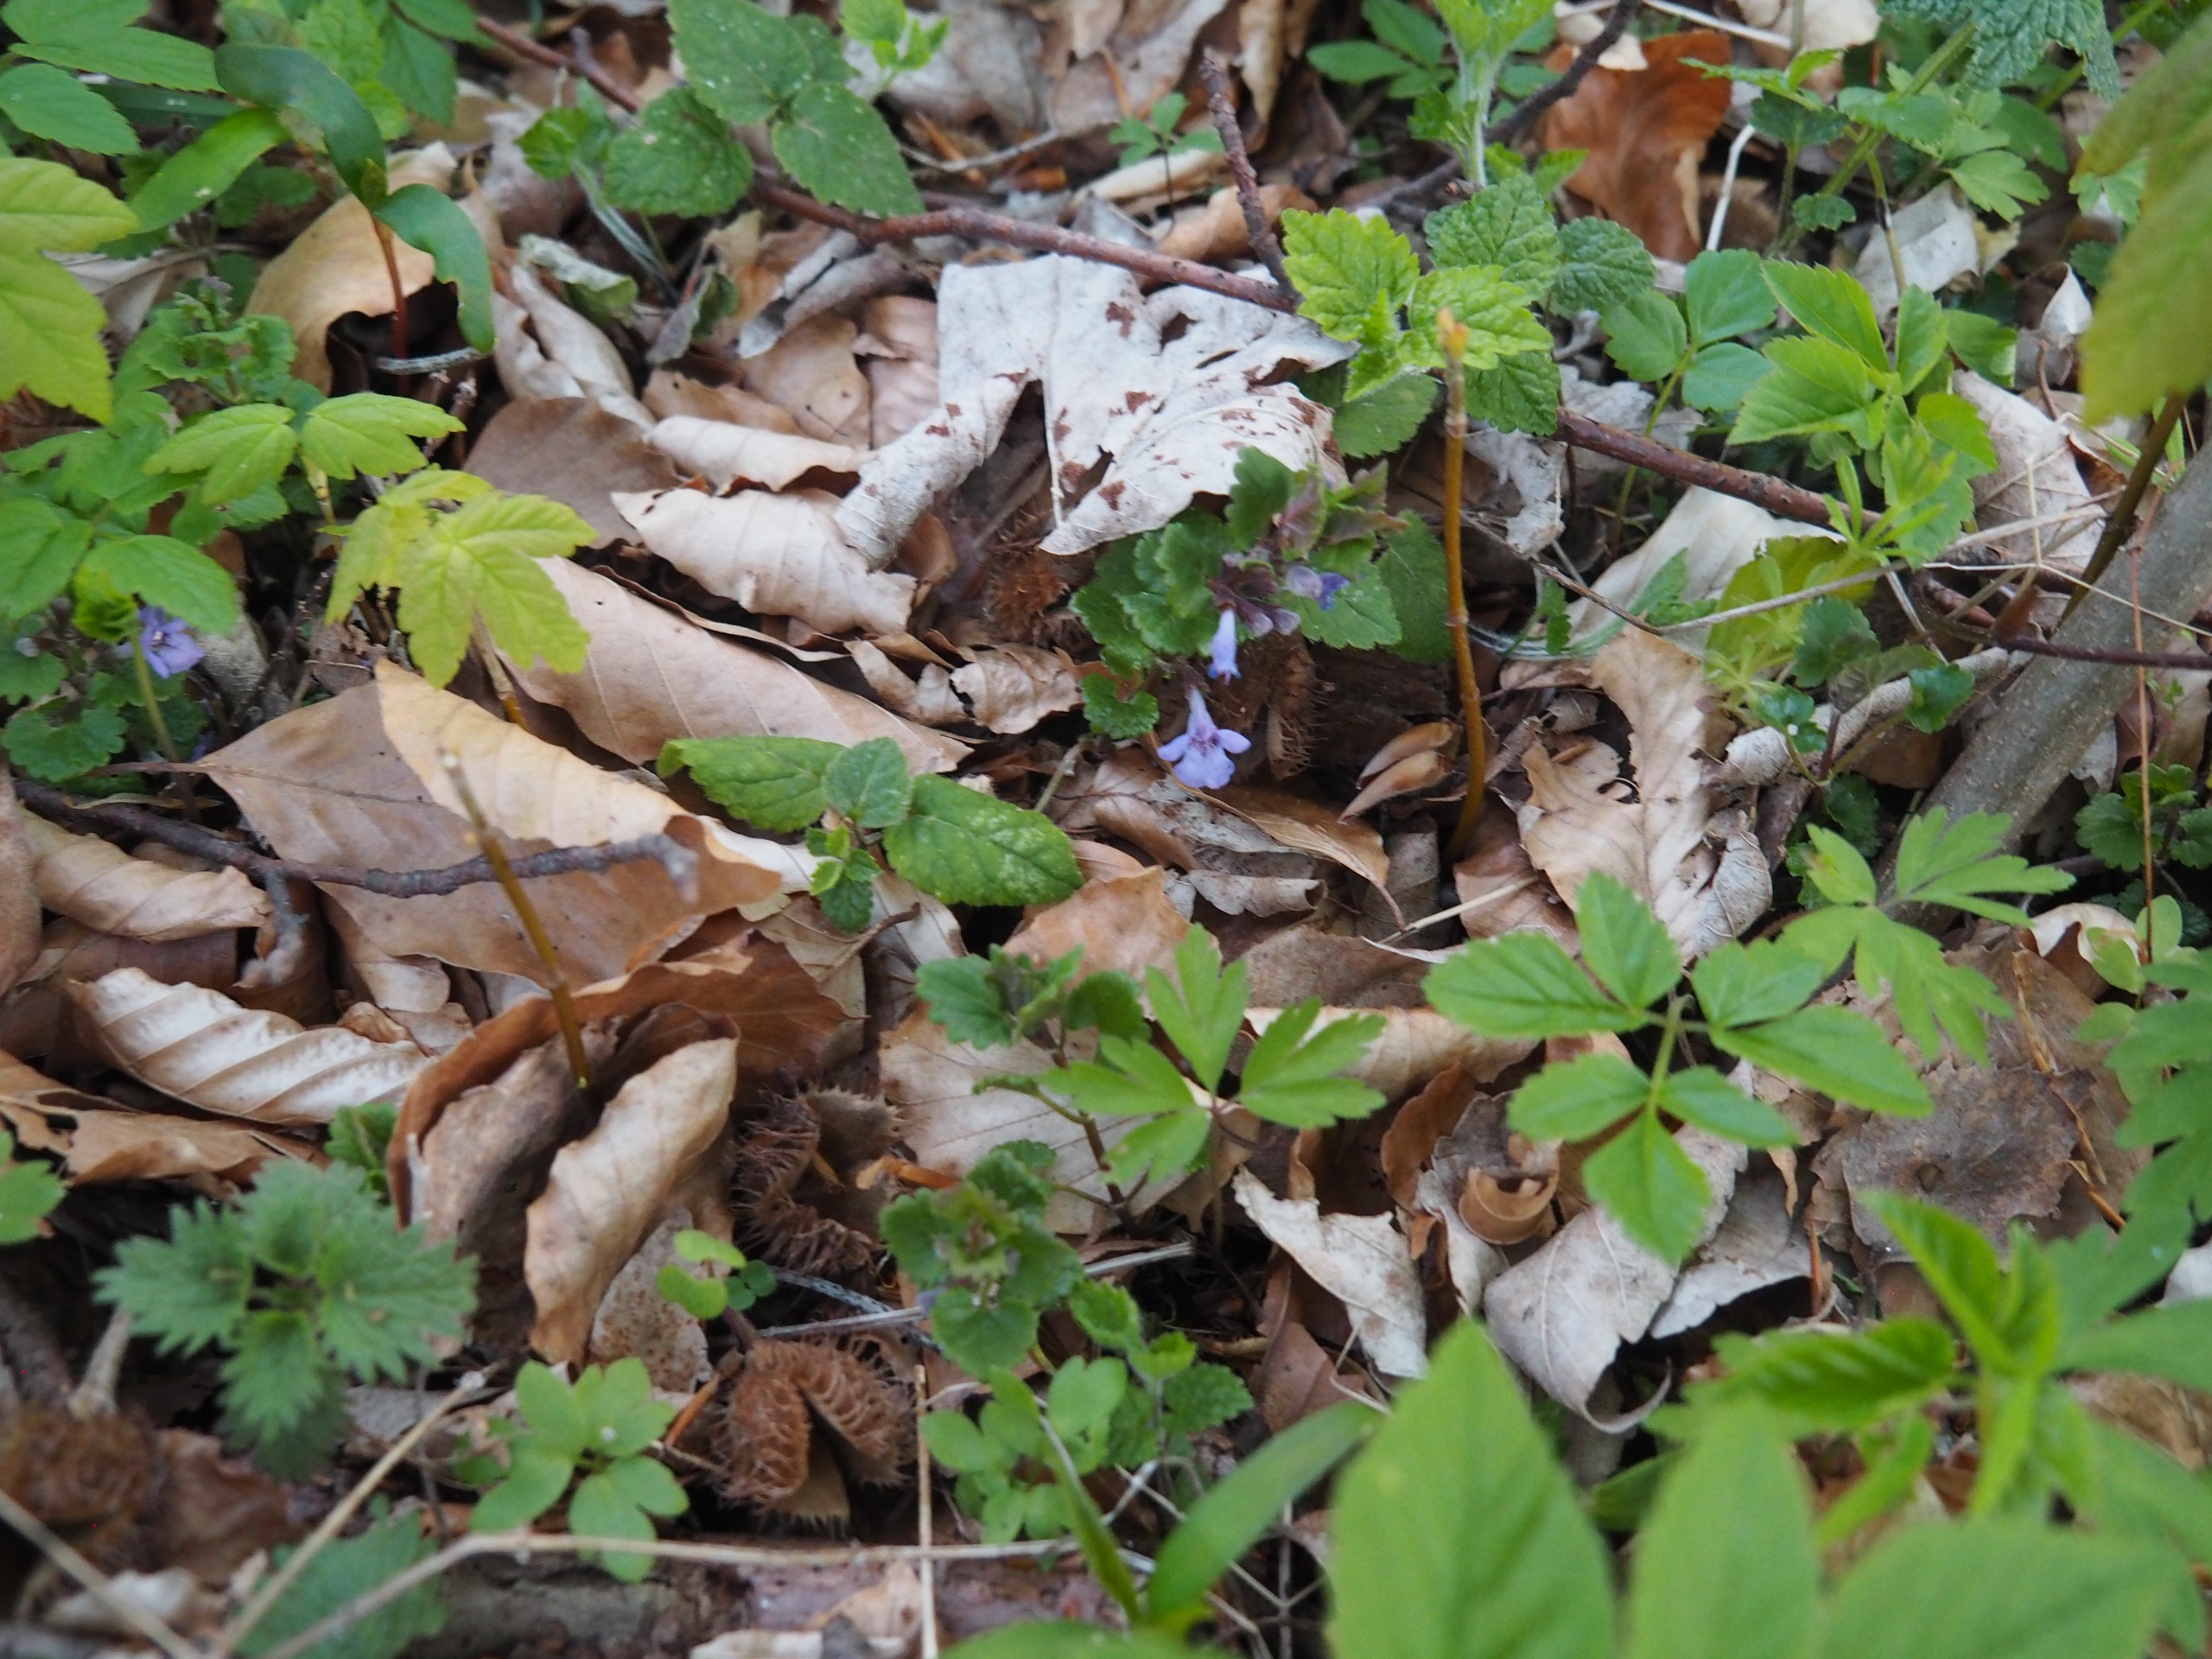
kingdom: Plantae
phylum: Tracheophyta
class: Magnoliopsida
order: Lamiales
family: Lamiaceae
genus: Glechoma
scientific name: Glechoma hederacea
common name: Korsknap
